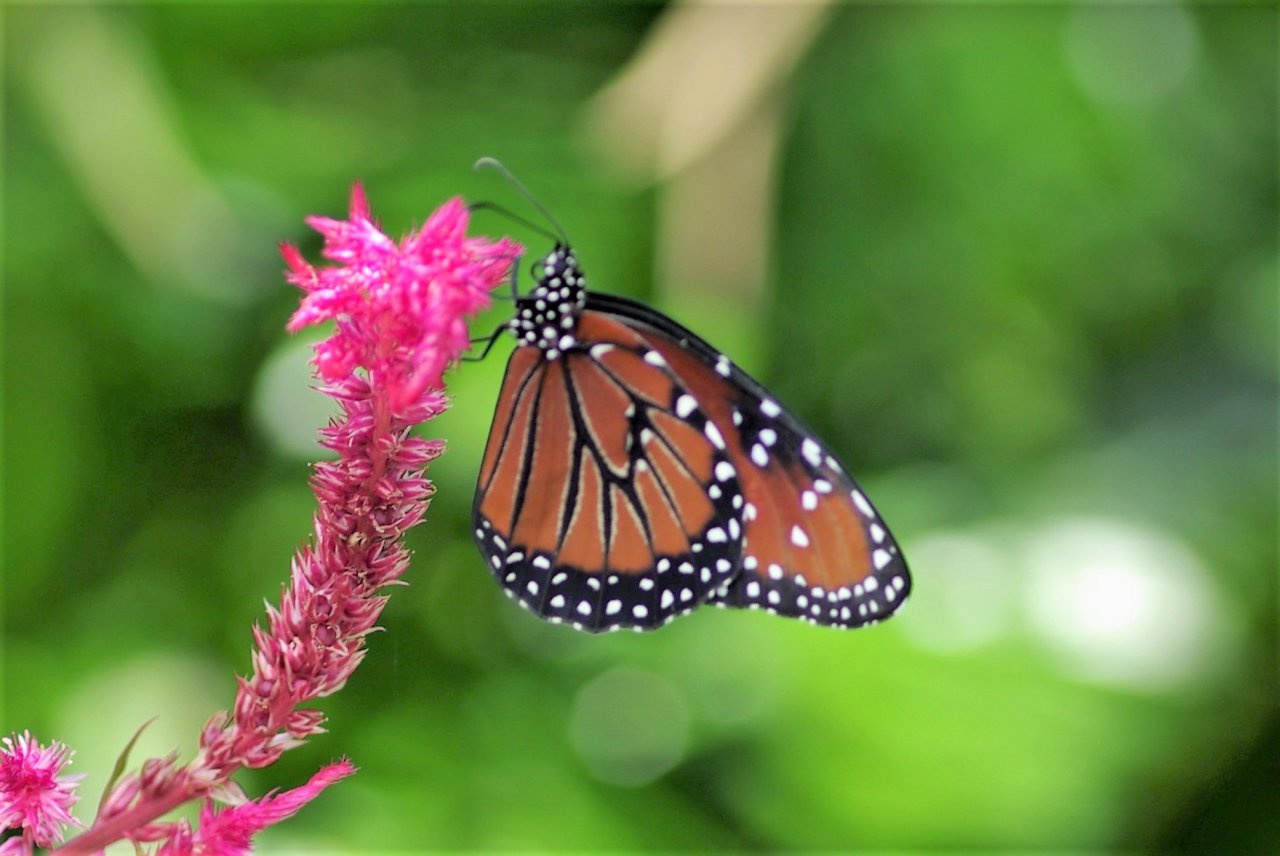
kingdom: Animalia
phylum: Arthropoda
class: Insecta
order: Lepidoptera
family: Nymphalidae
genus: Danaus
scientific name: Danaus gilippus
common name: Queen
